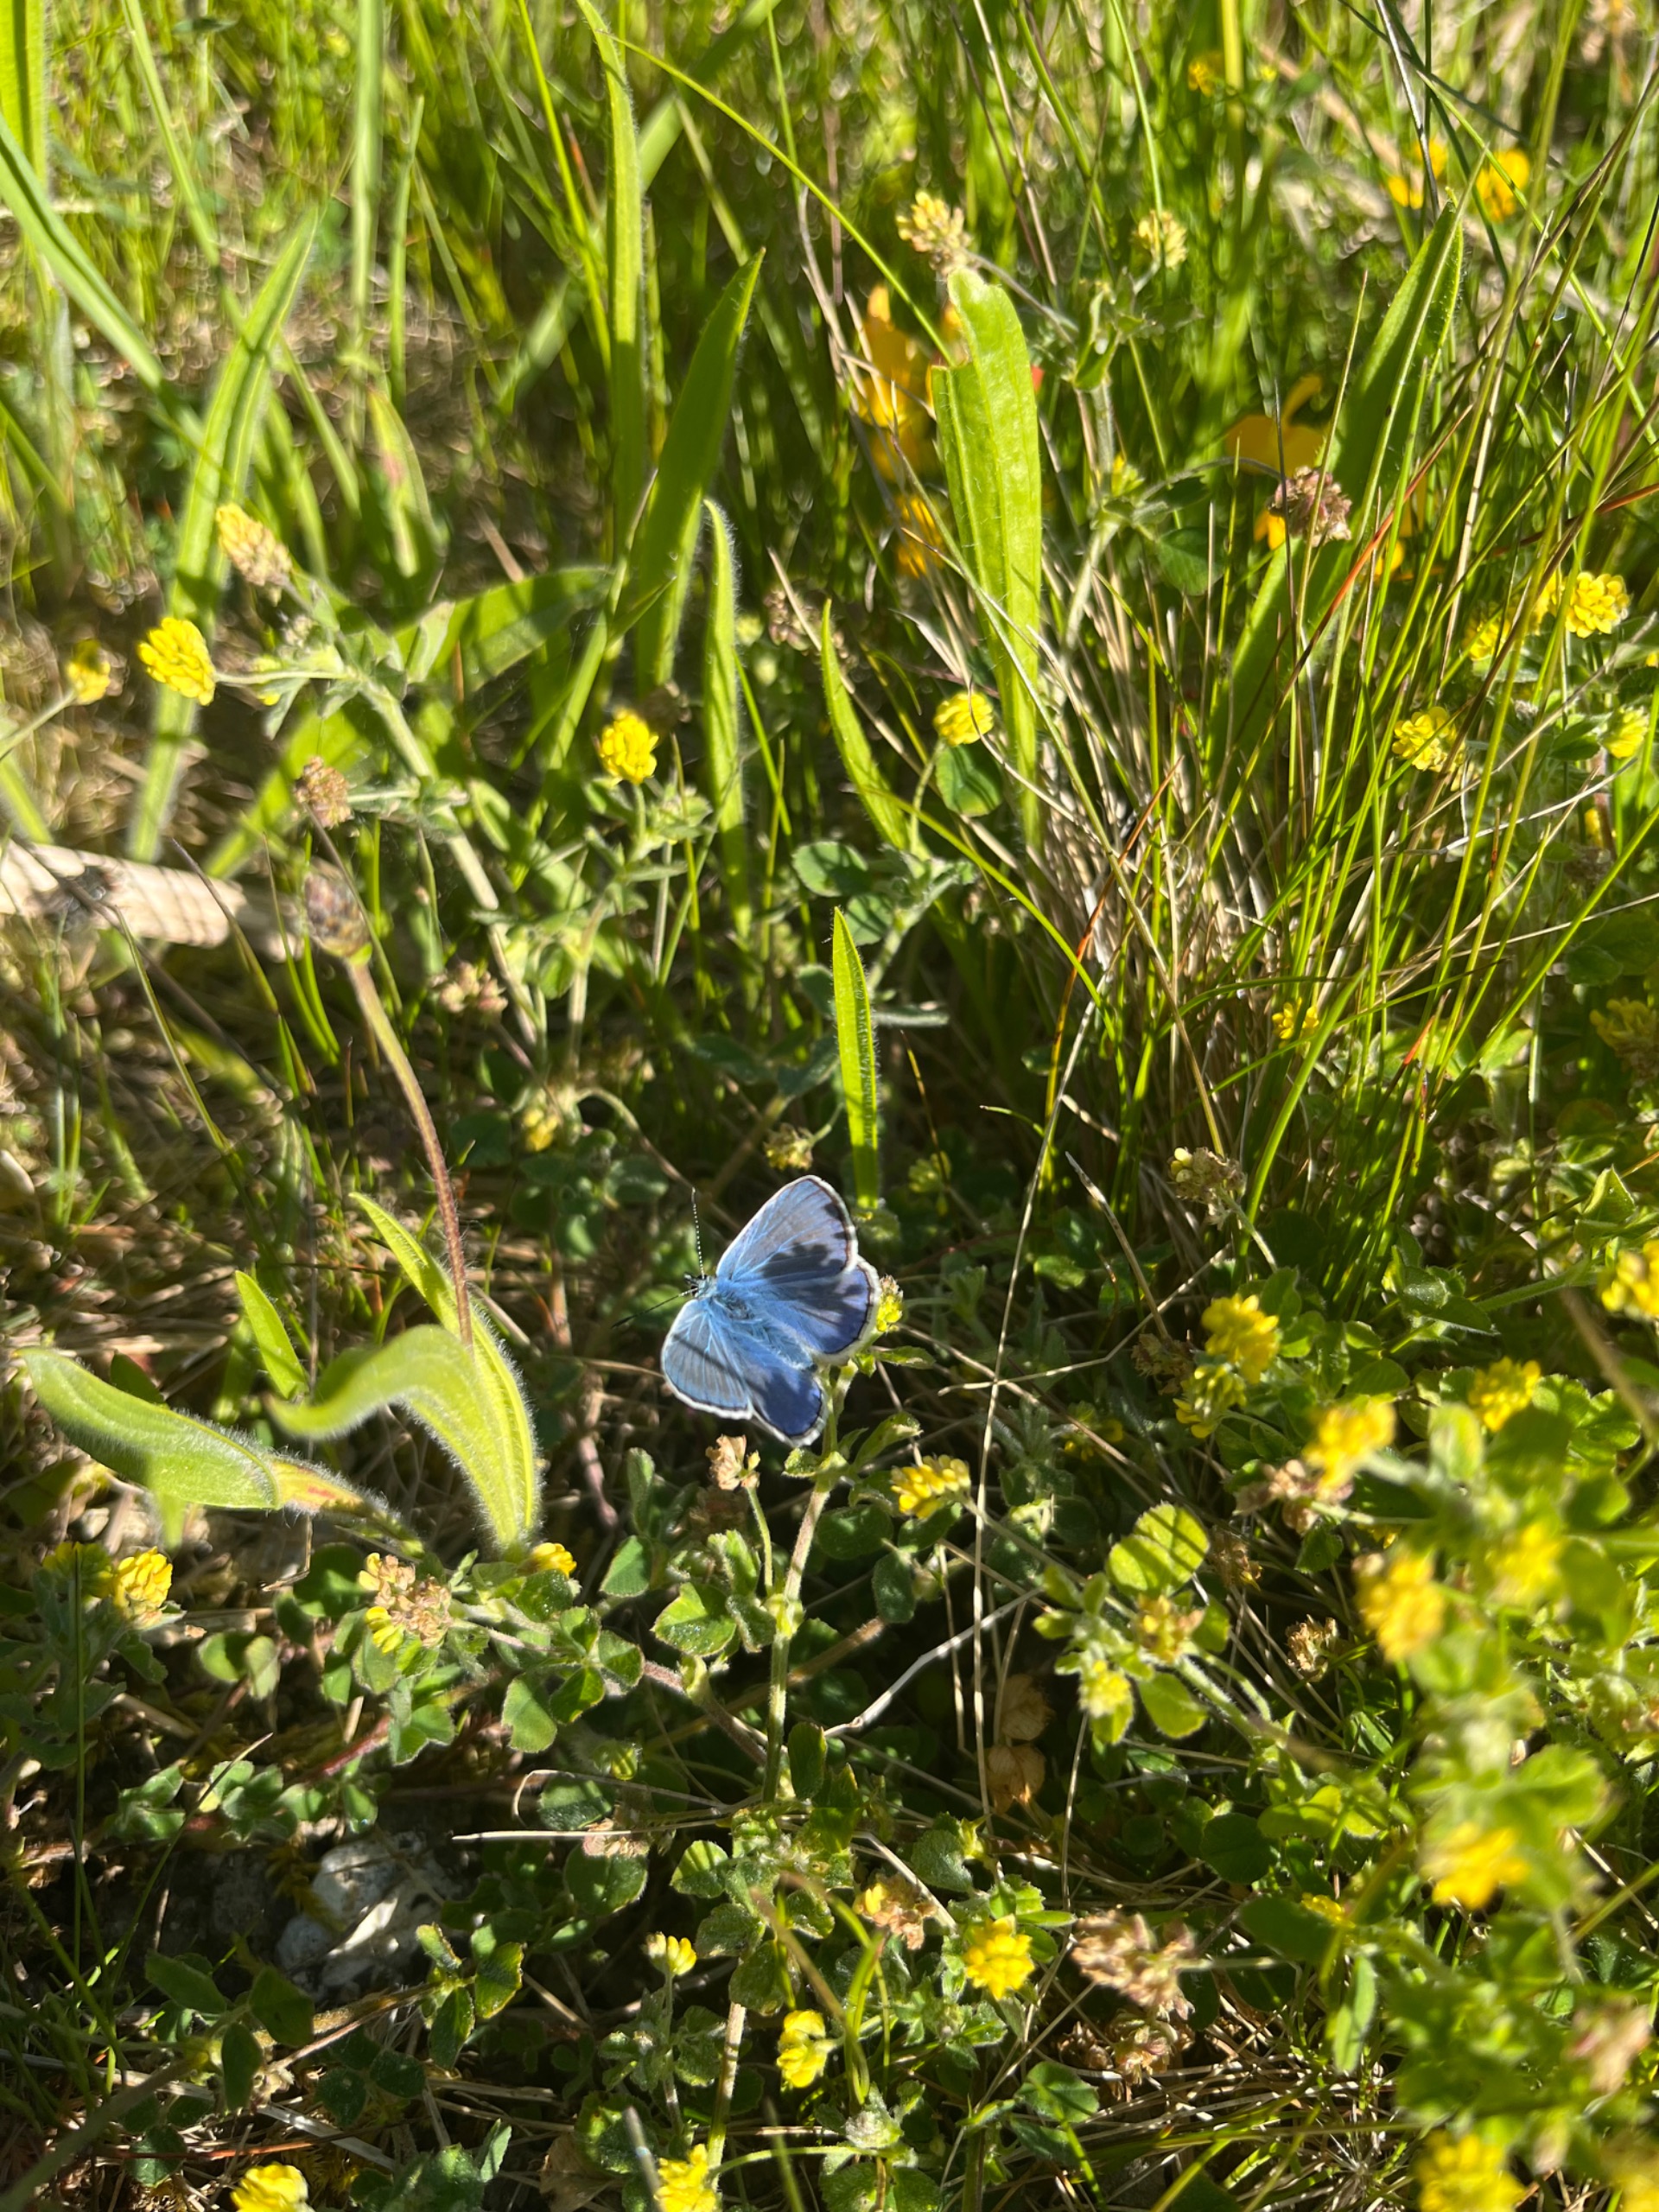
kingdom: Animalia
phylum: Arthropoda
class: Insecta
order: Lepidoptera
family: Lycaenidae
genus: Polyommatus
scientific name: Polyommatus icarus
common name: Almindelig blåfugl
